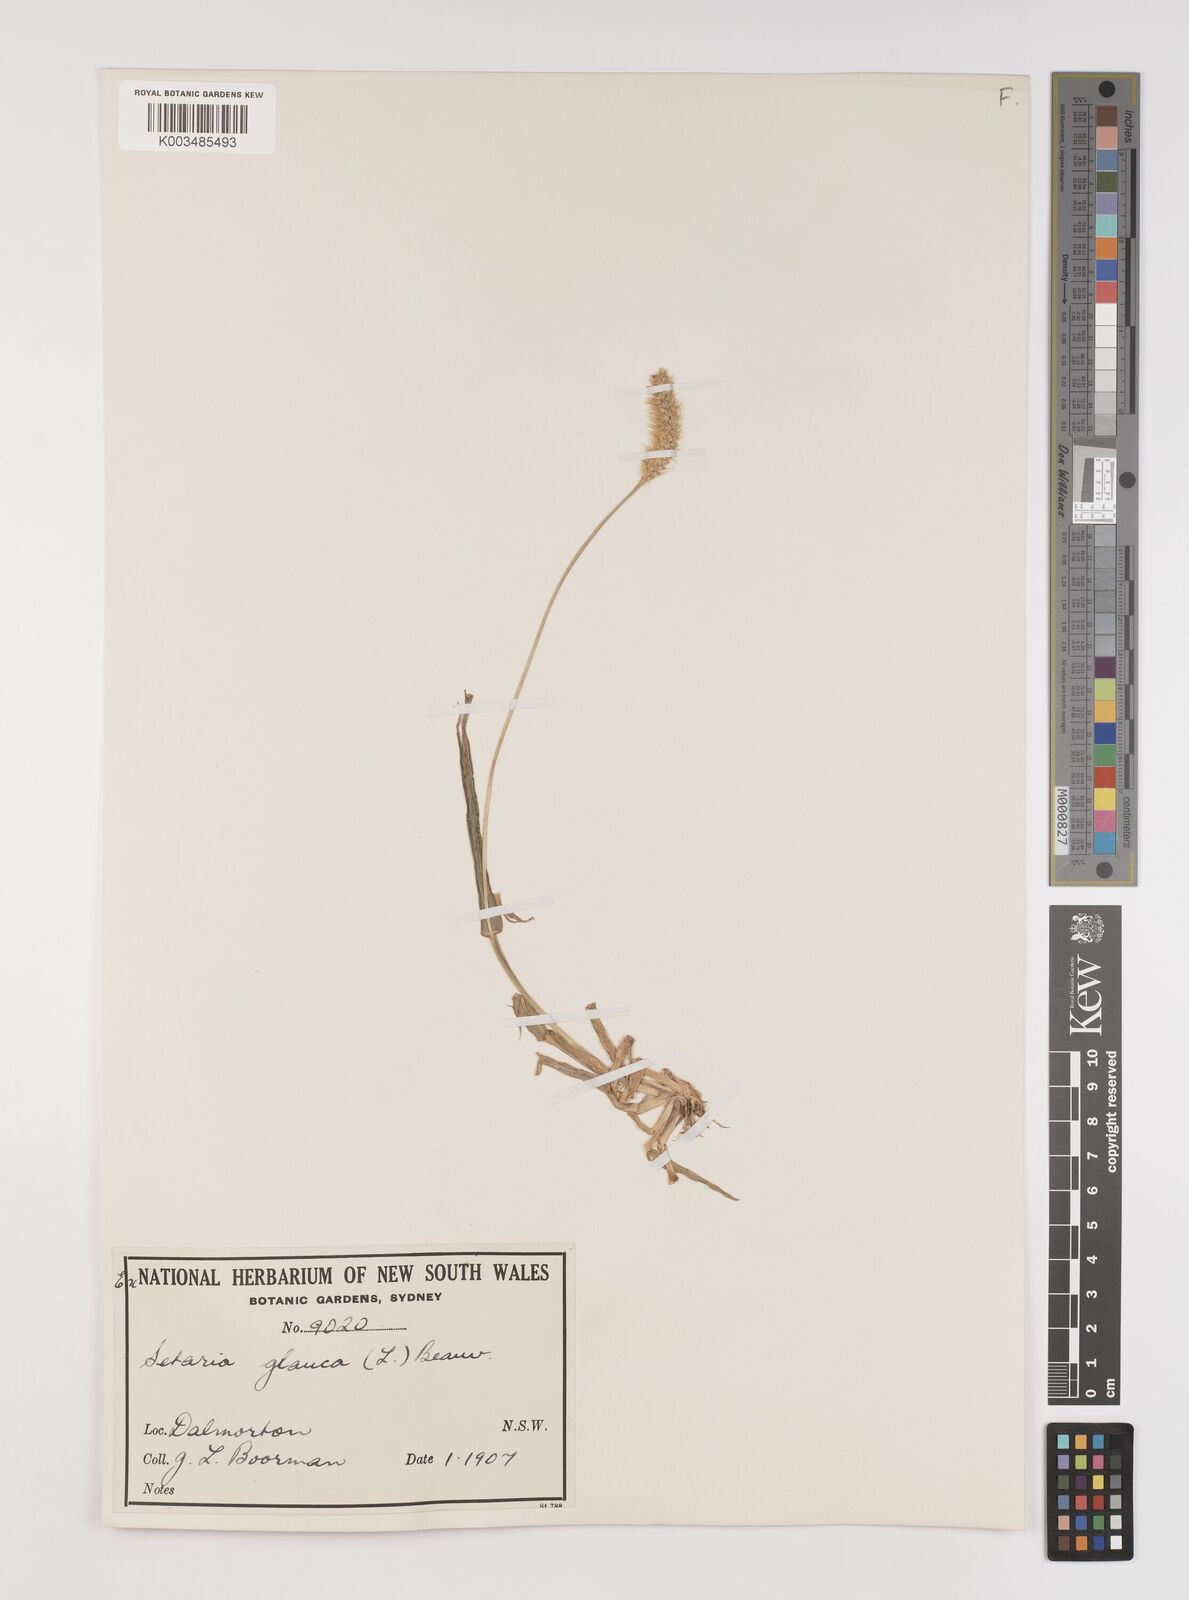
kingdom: Plantae
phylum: Tracheophyta
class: Liliopsida
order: Poales
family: Poaceae
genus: Setaria
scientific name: Setaria pumila
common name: Yellow bristle-grass
